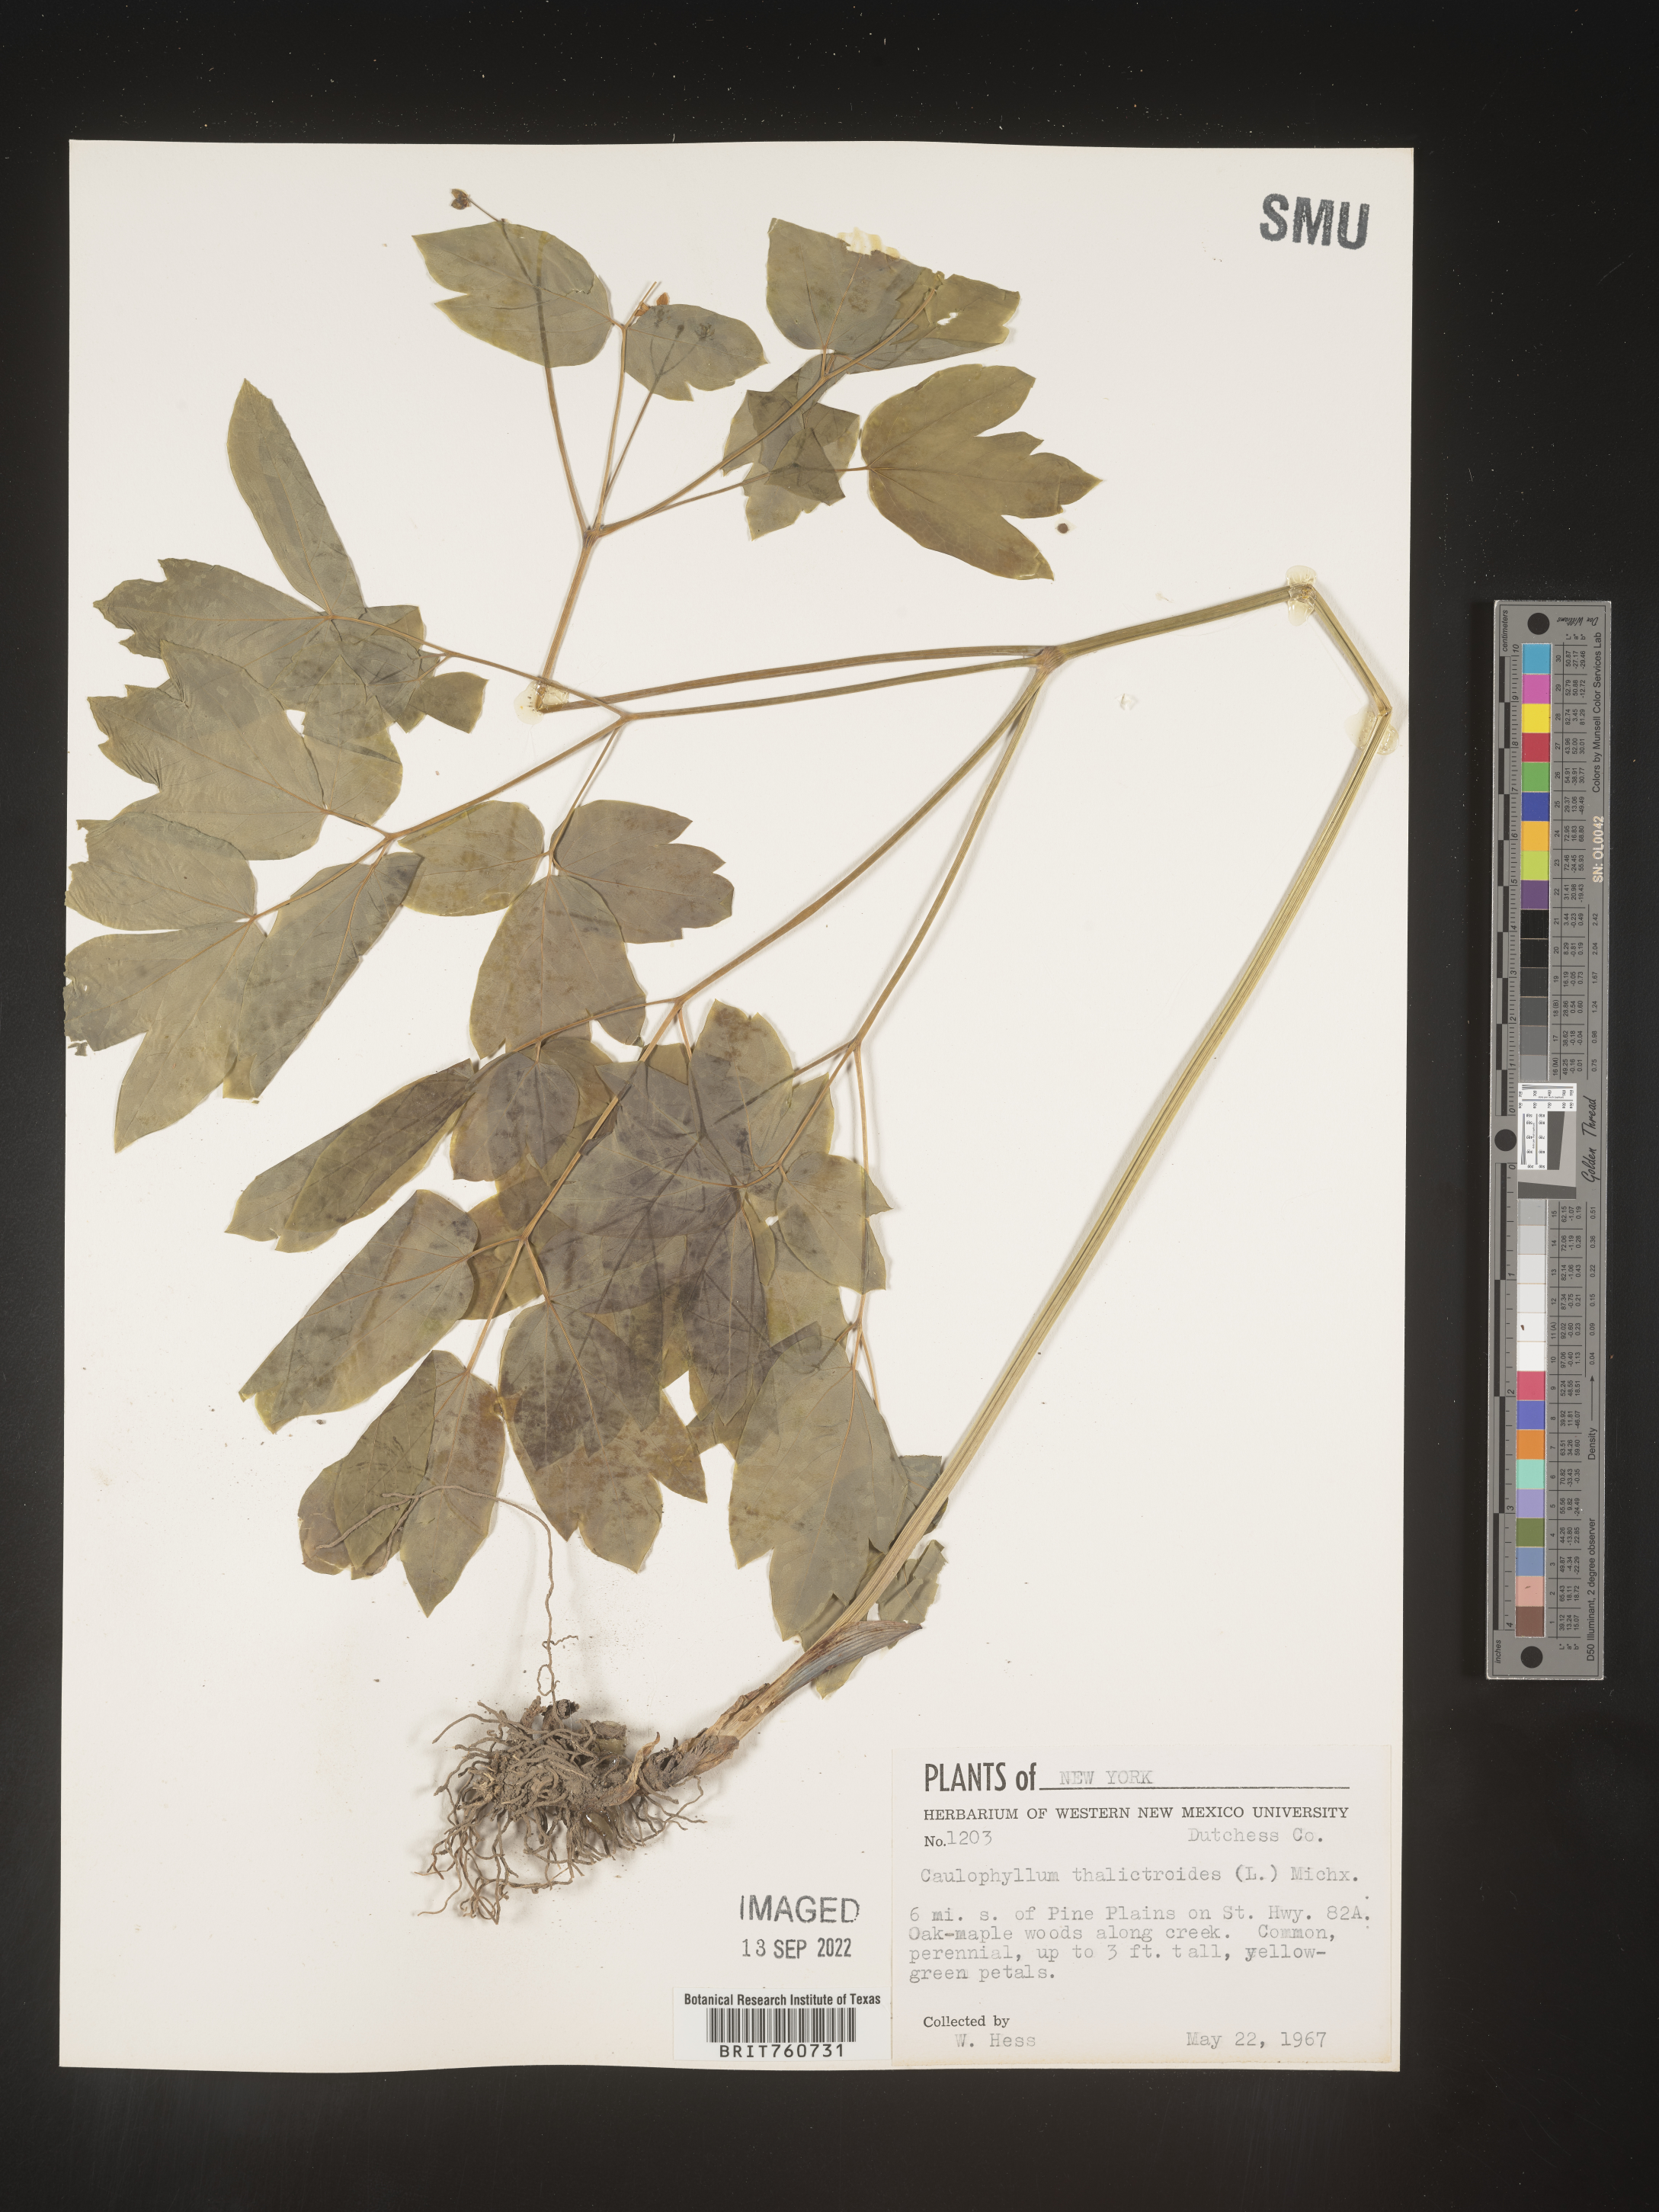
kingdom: Plantae
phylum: Tracheophyta
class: Magnoliopsida
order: Ranunculales
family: Berberidaceae
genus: Caulophyllum
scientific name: Caulophyllum thalictroides
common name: Blue cohosh
